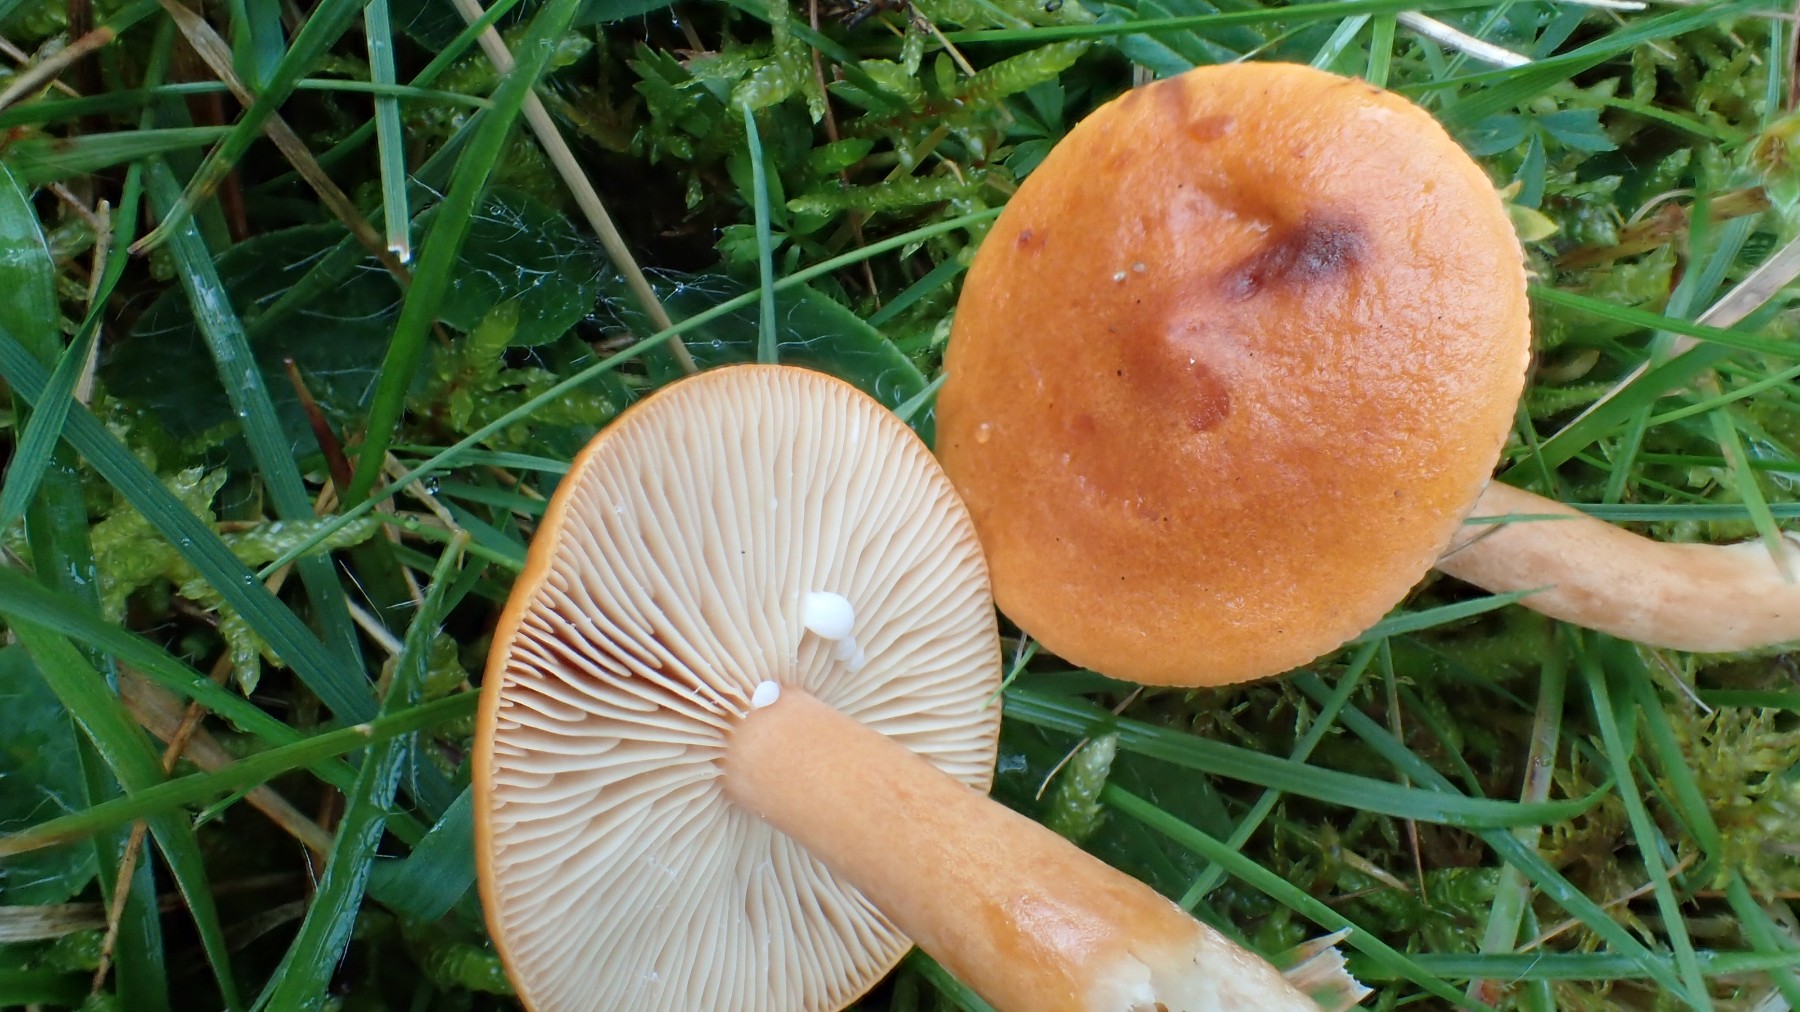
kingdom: Fungi
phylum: Basidiomycota
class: Agaricomycetes
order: Russulales
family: Russulaceae
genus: Lactarius
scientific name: Lactarius aurantiacus
